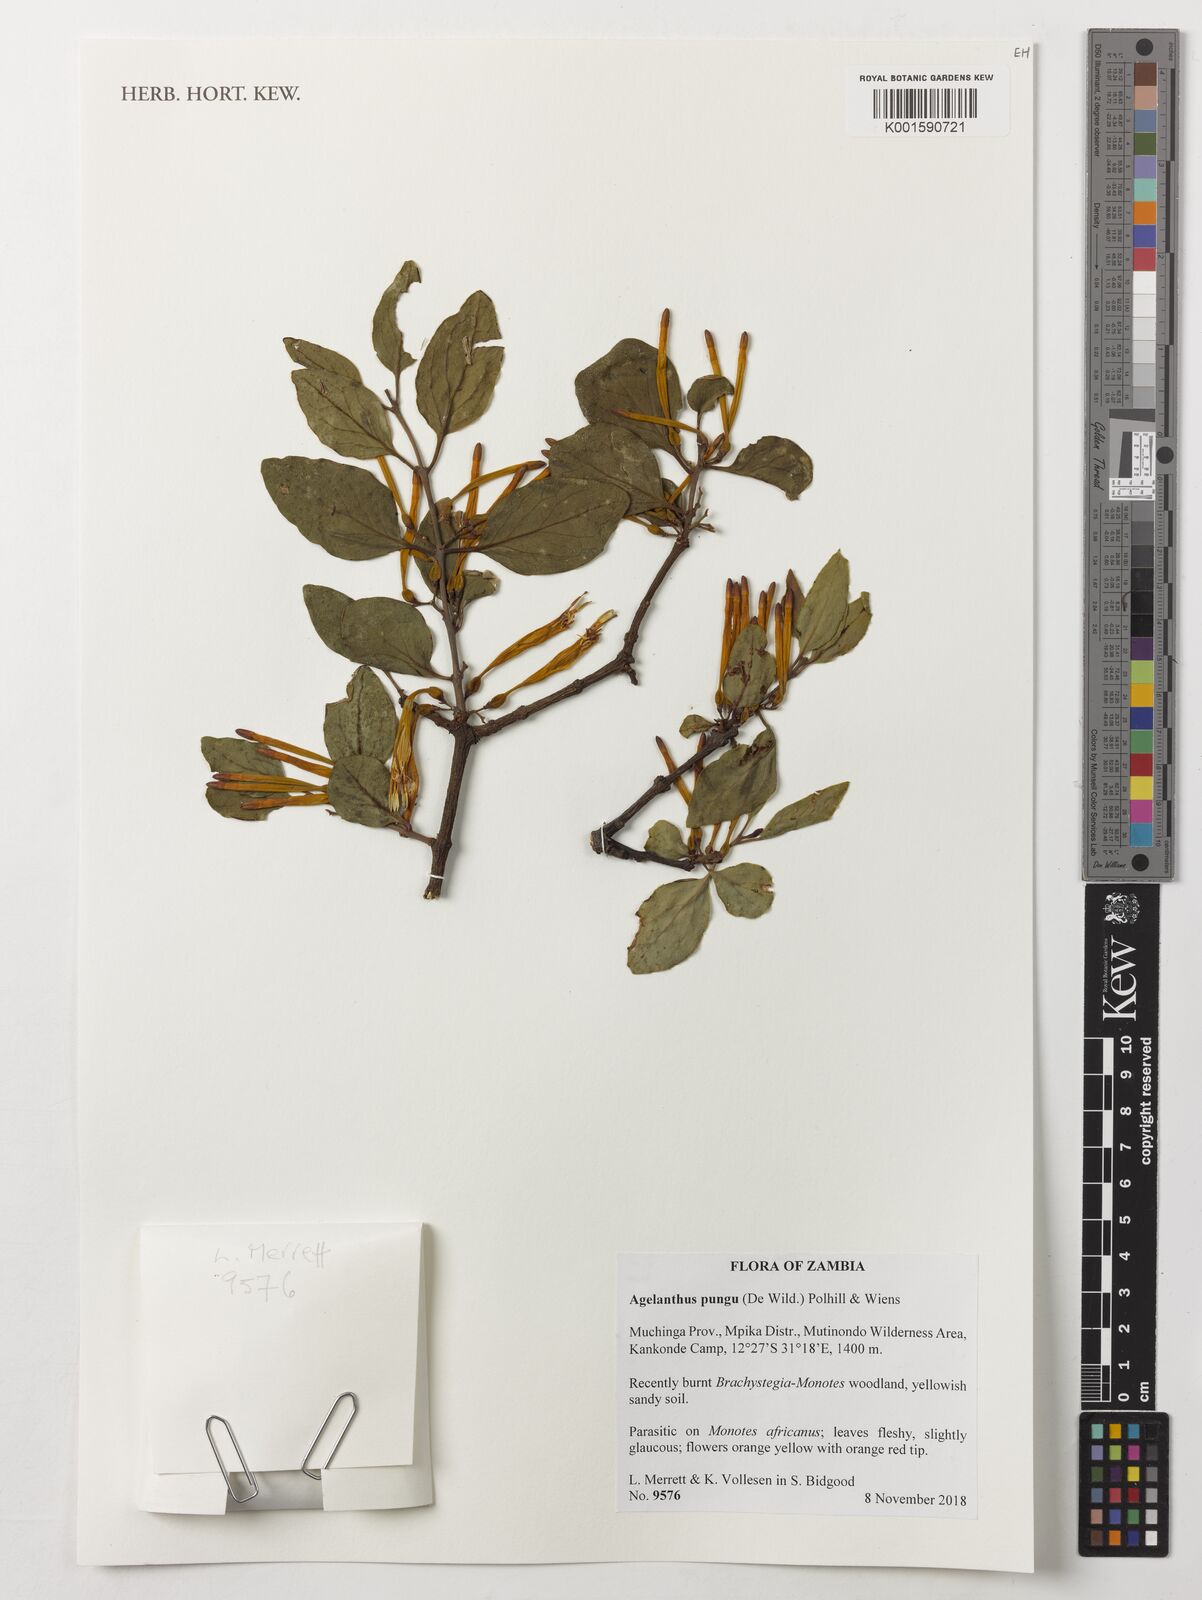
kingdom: Plantae
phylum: Tracheophyta
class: Magnoliopsida
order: Santalales
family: Loranthaceae
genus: Agelanthus
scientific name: Agelanthus pungu
